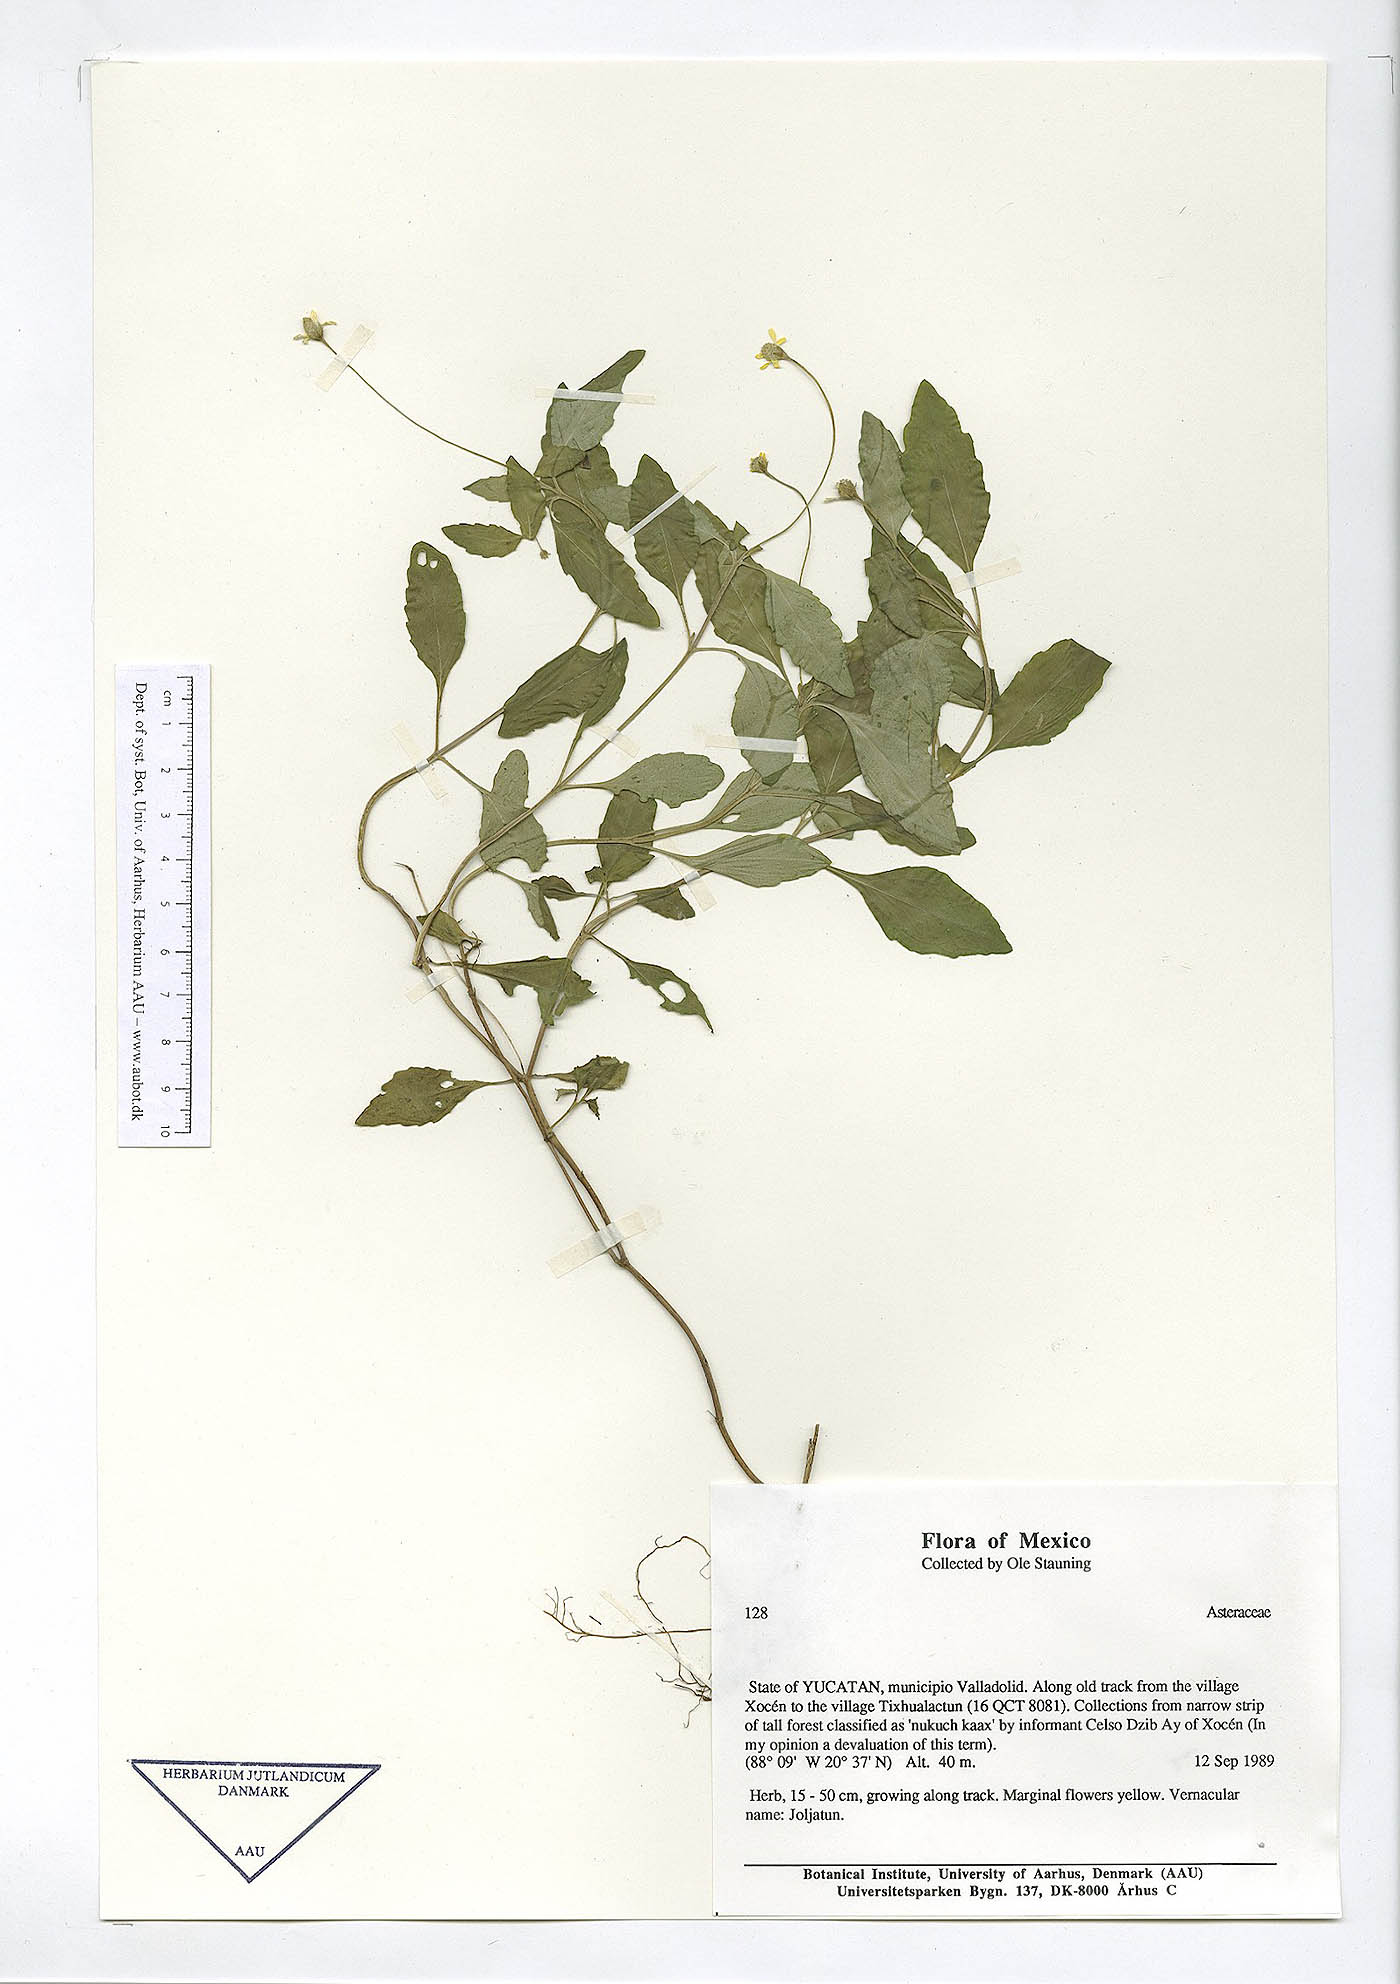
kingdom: Plantae
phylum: Tracheophyta
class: Magnoliopsida
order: Asterales
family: Asteraceae
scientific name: Asteraceae
